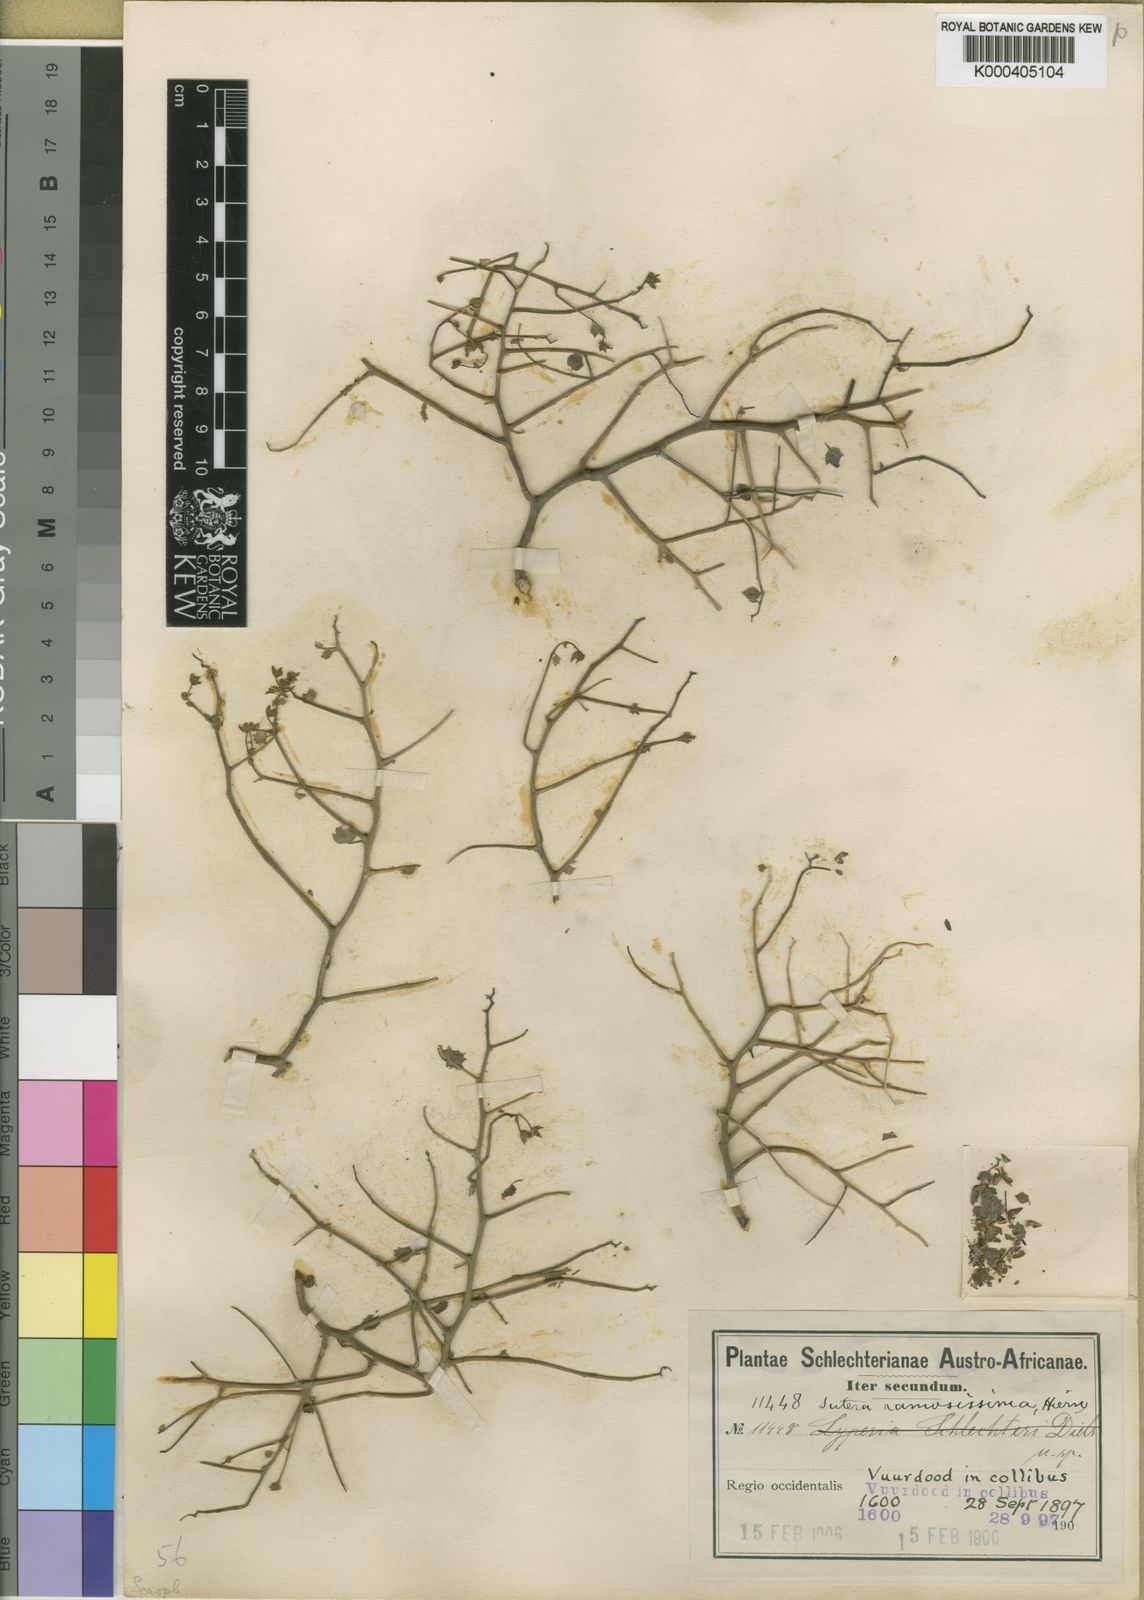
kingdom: Plantae
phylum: Tracheophyta
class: Magnoliopsida
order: Lamiales
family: Scrophulariaceae
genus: Jamesbrittenia
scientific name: Jamesbrittenia ramosissima
